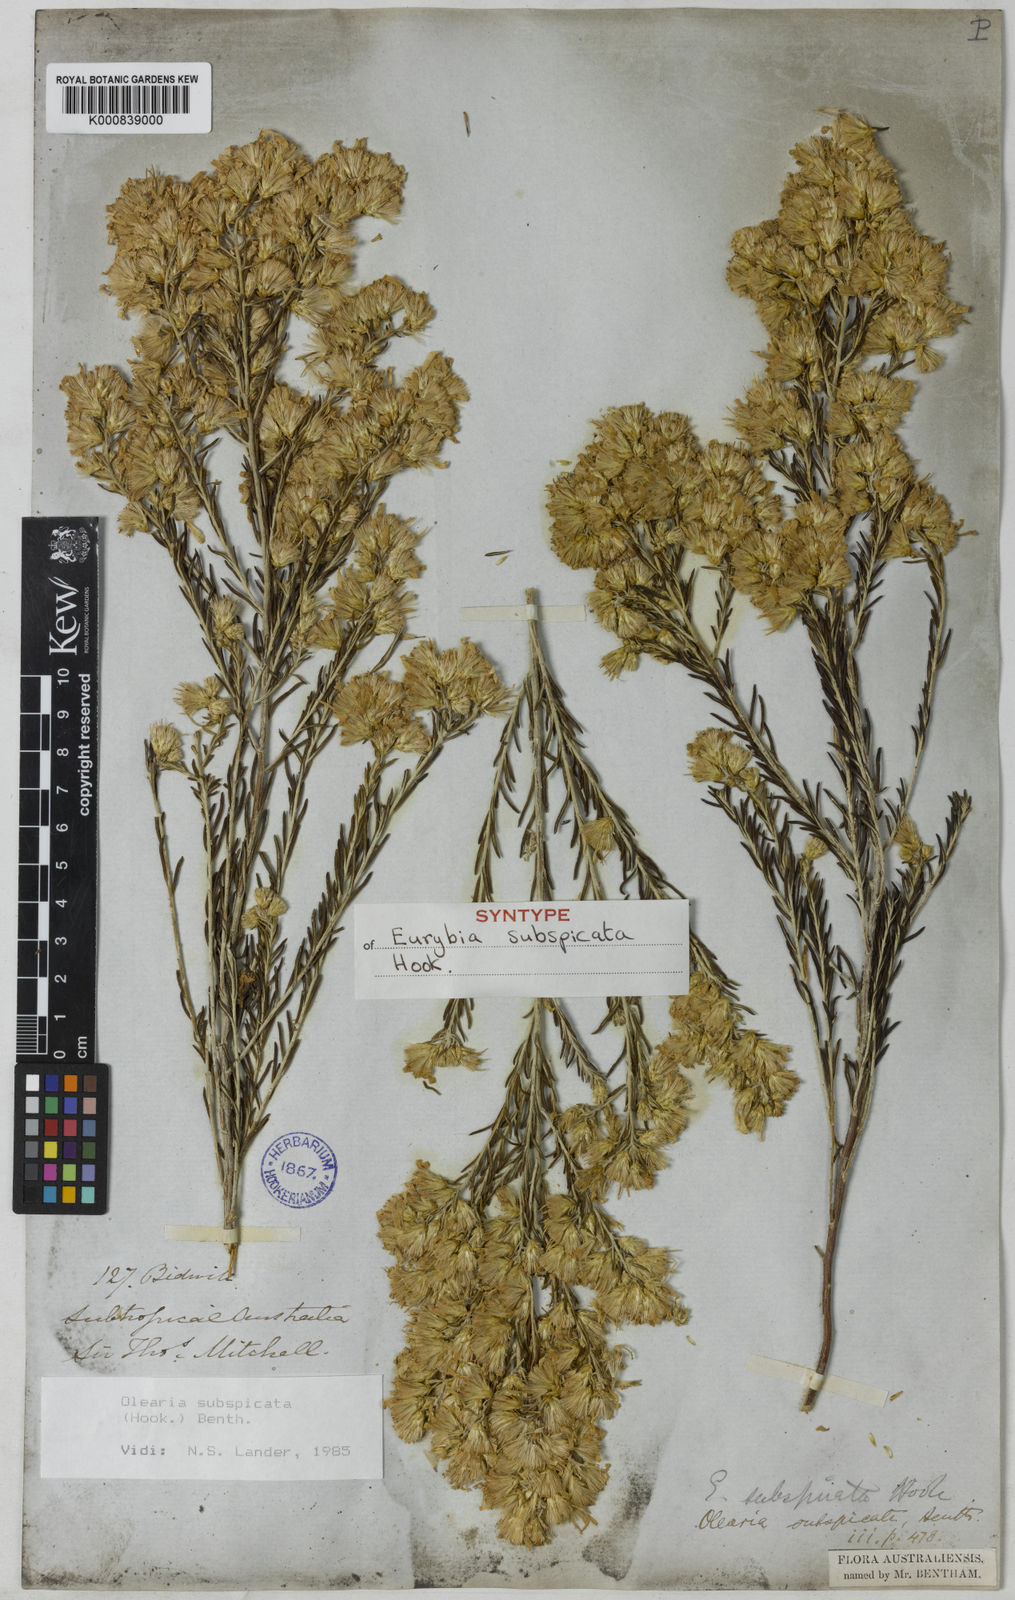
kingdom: Plantae
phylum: Tracheophyta
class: Magnoliopsida
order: Asterales
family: Asteraceae
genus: Olearia
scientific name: Olearia subspicata
